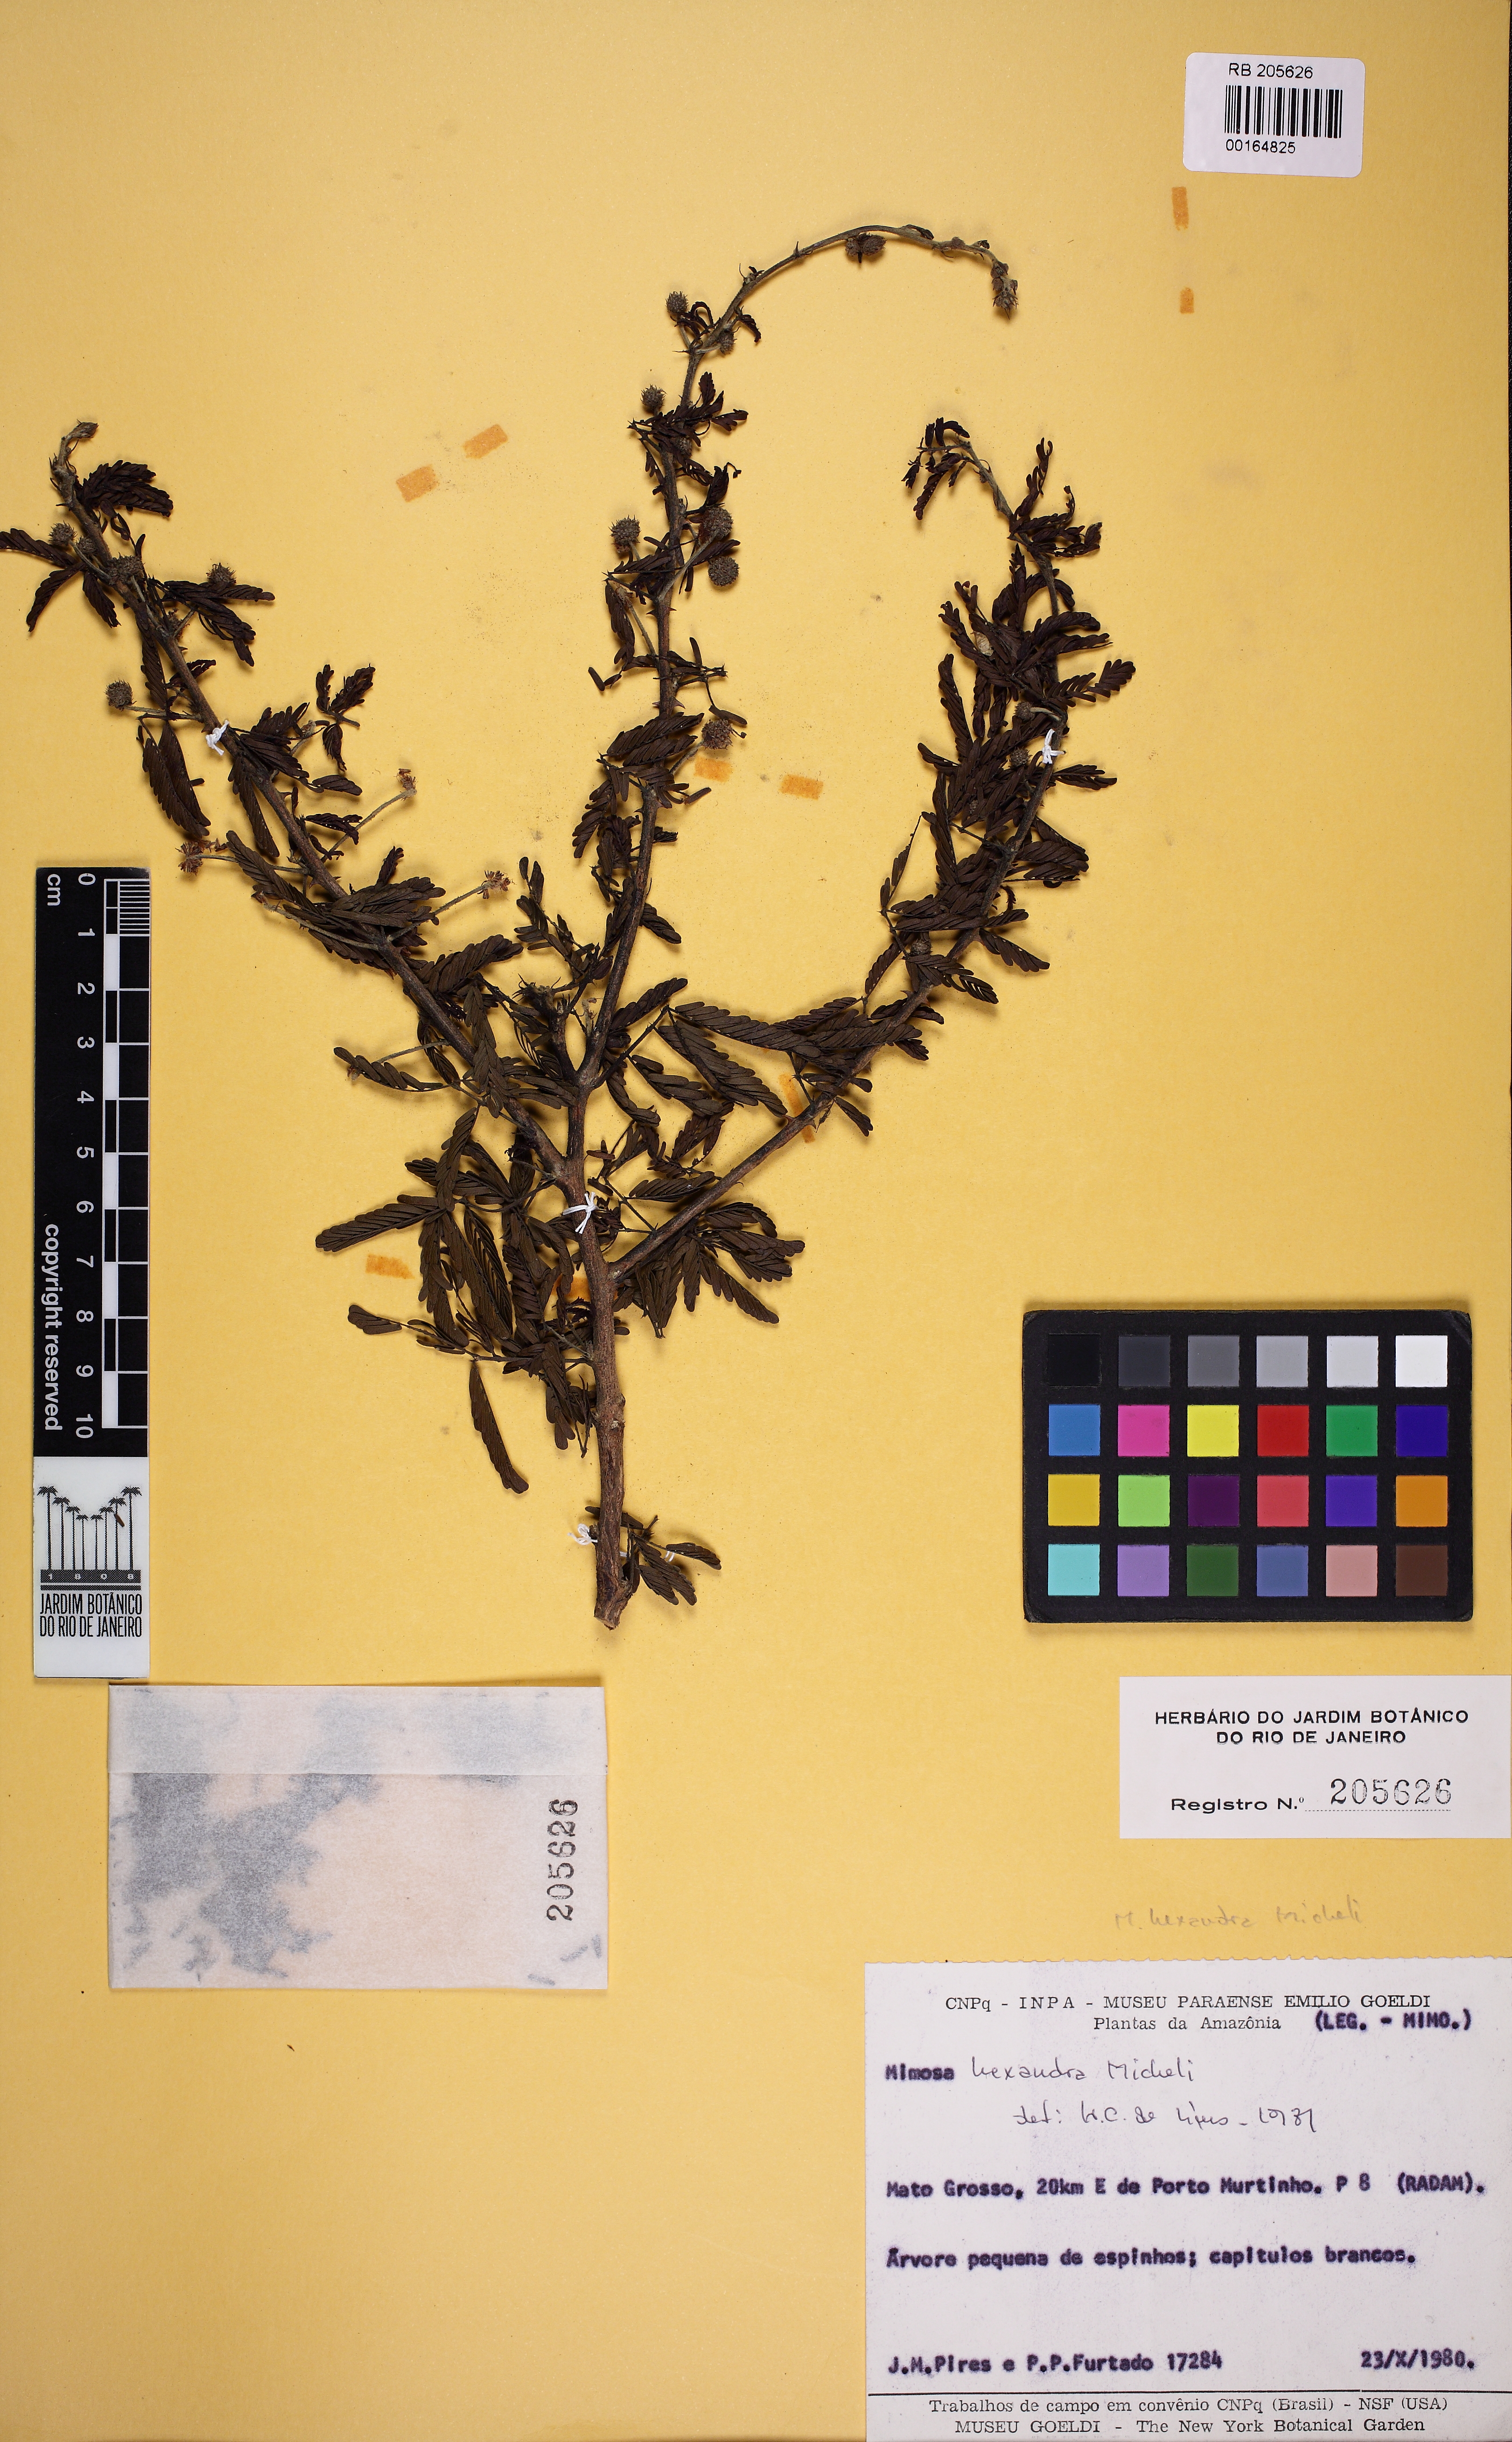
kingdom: Plantae
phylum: Tracheophyta
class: Magnoliopsida
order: Fabales
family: Fabaceae
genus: Mimosa
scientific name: Mimosa hexandra
